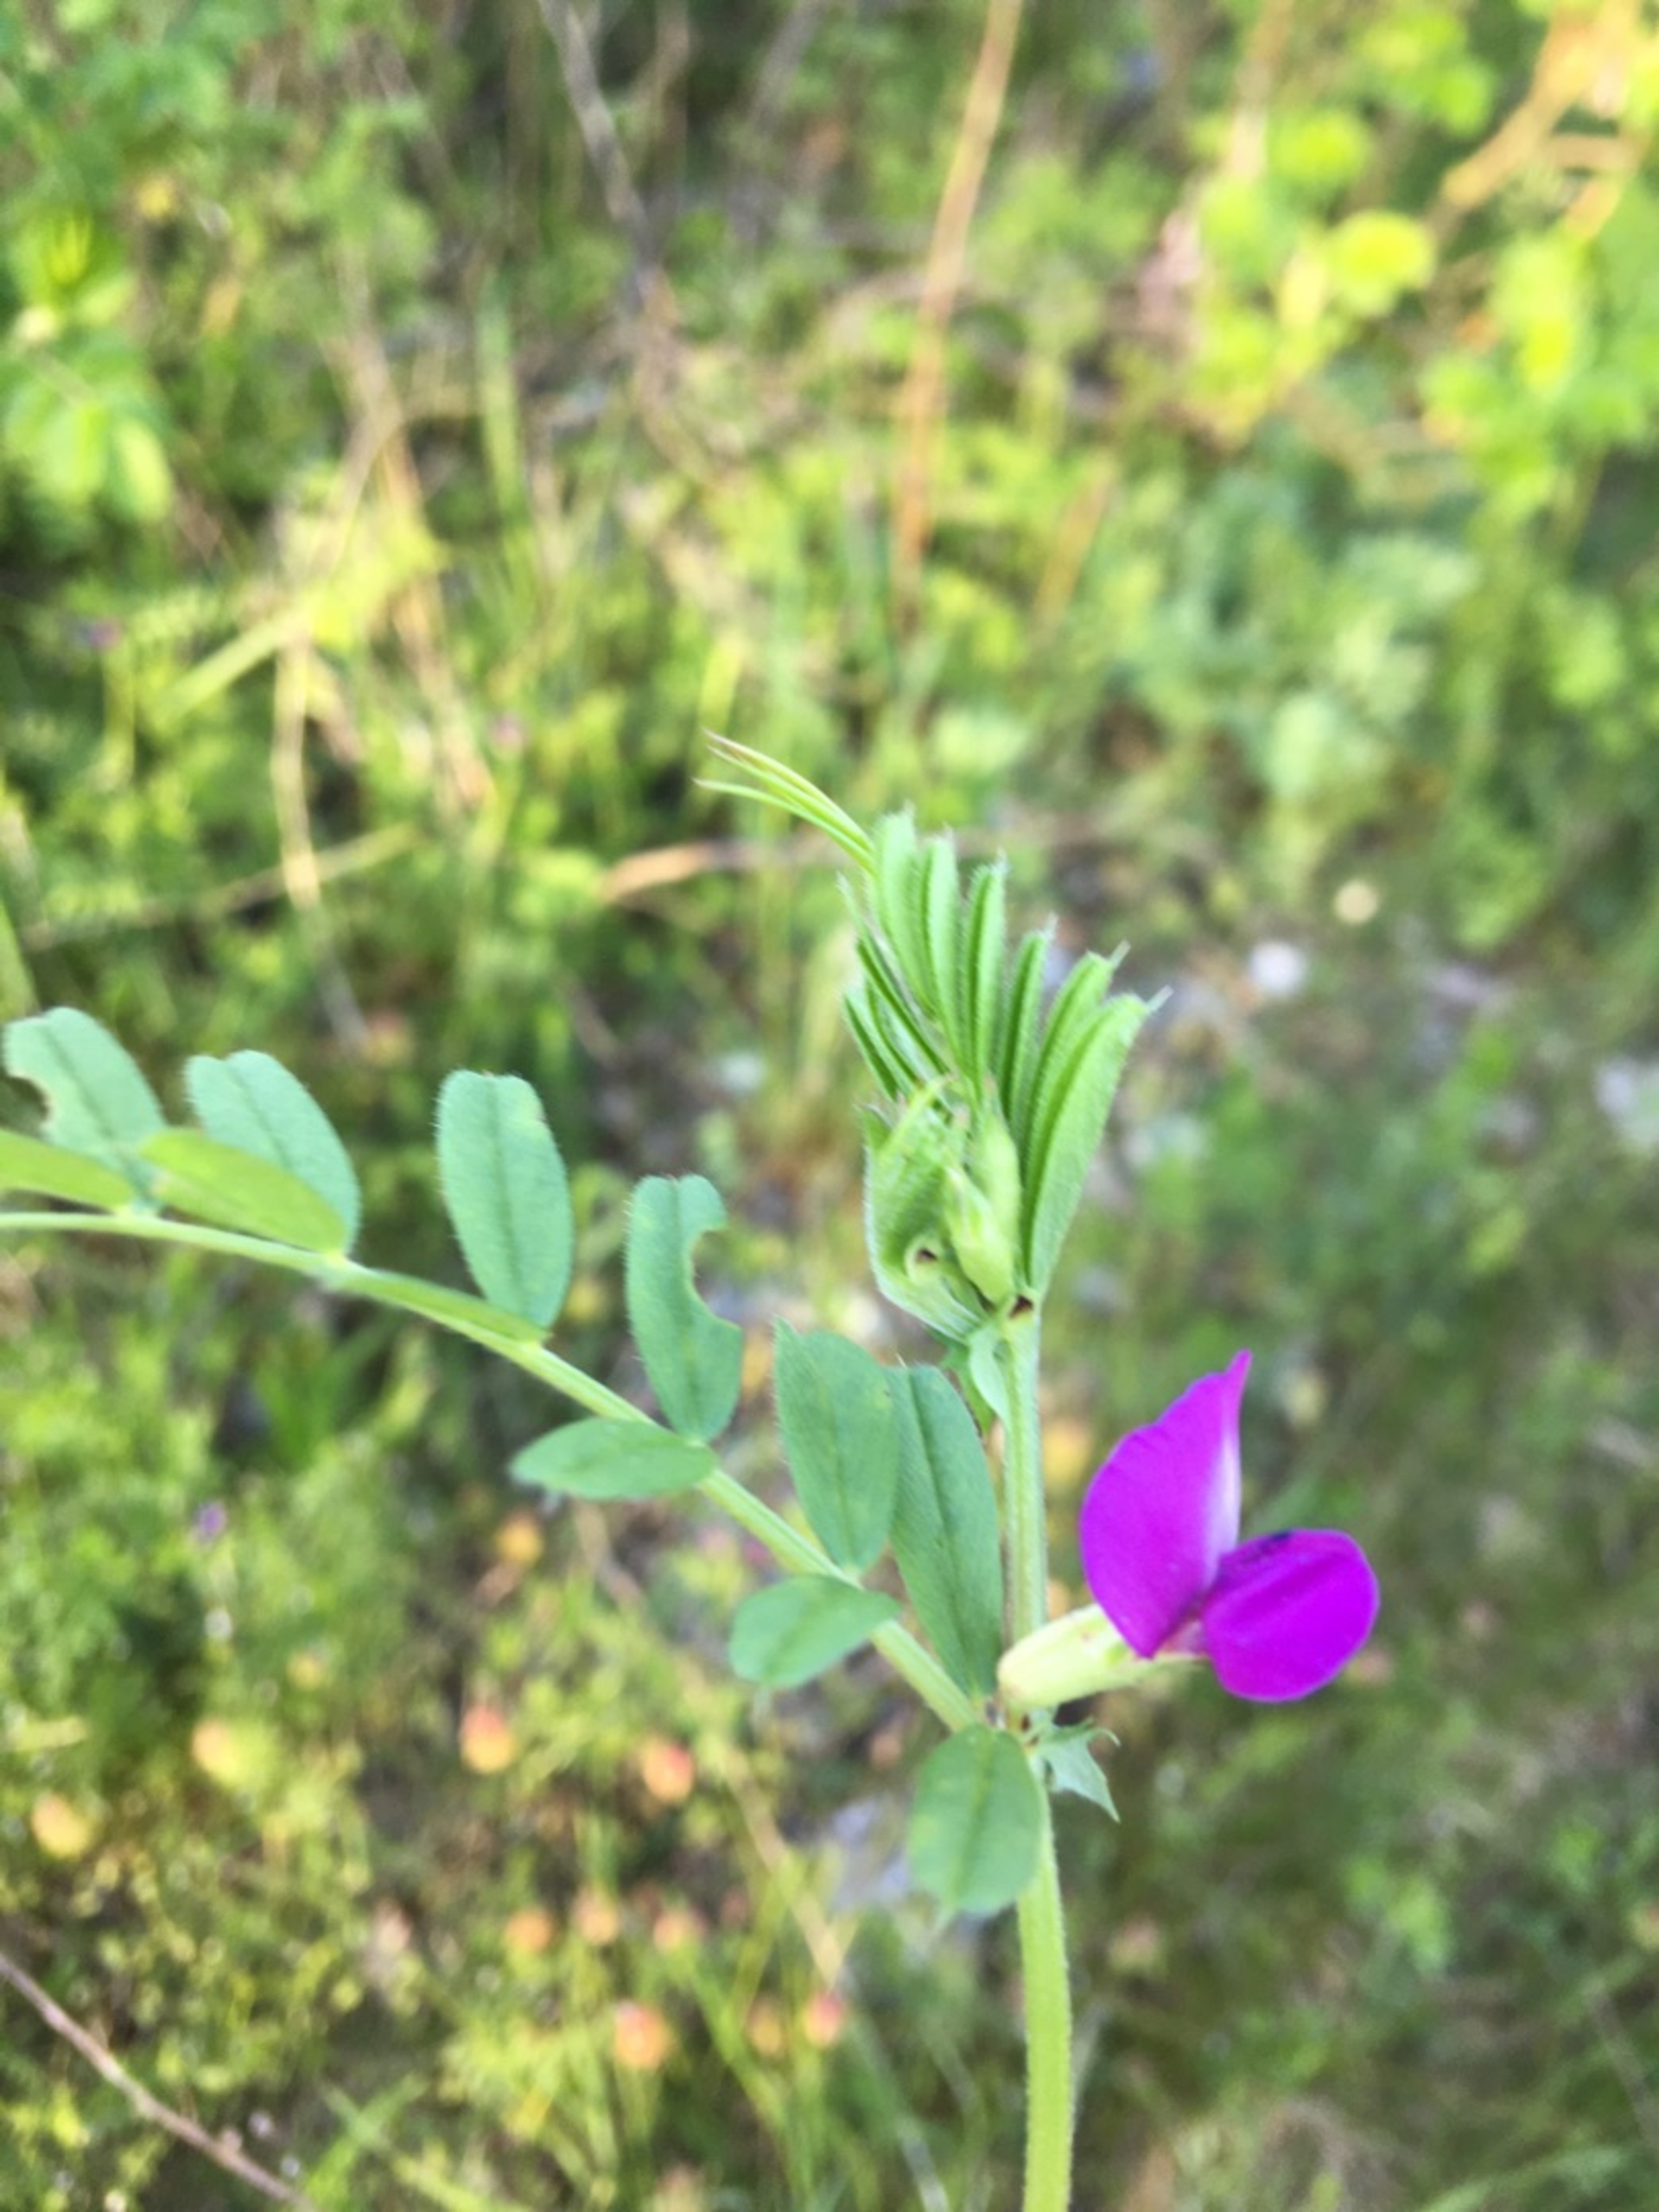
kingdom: Plantae
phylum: Tracheophyta
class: Magnoliopsida
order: Fabales
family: Fabaceae
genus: Vicia
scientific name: Vicia sativa
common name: Foder-vikke
